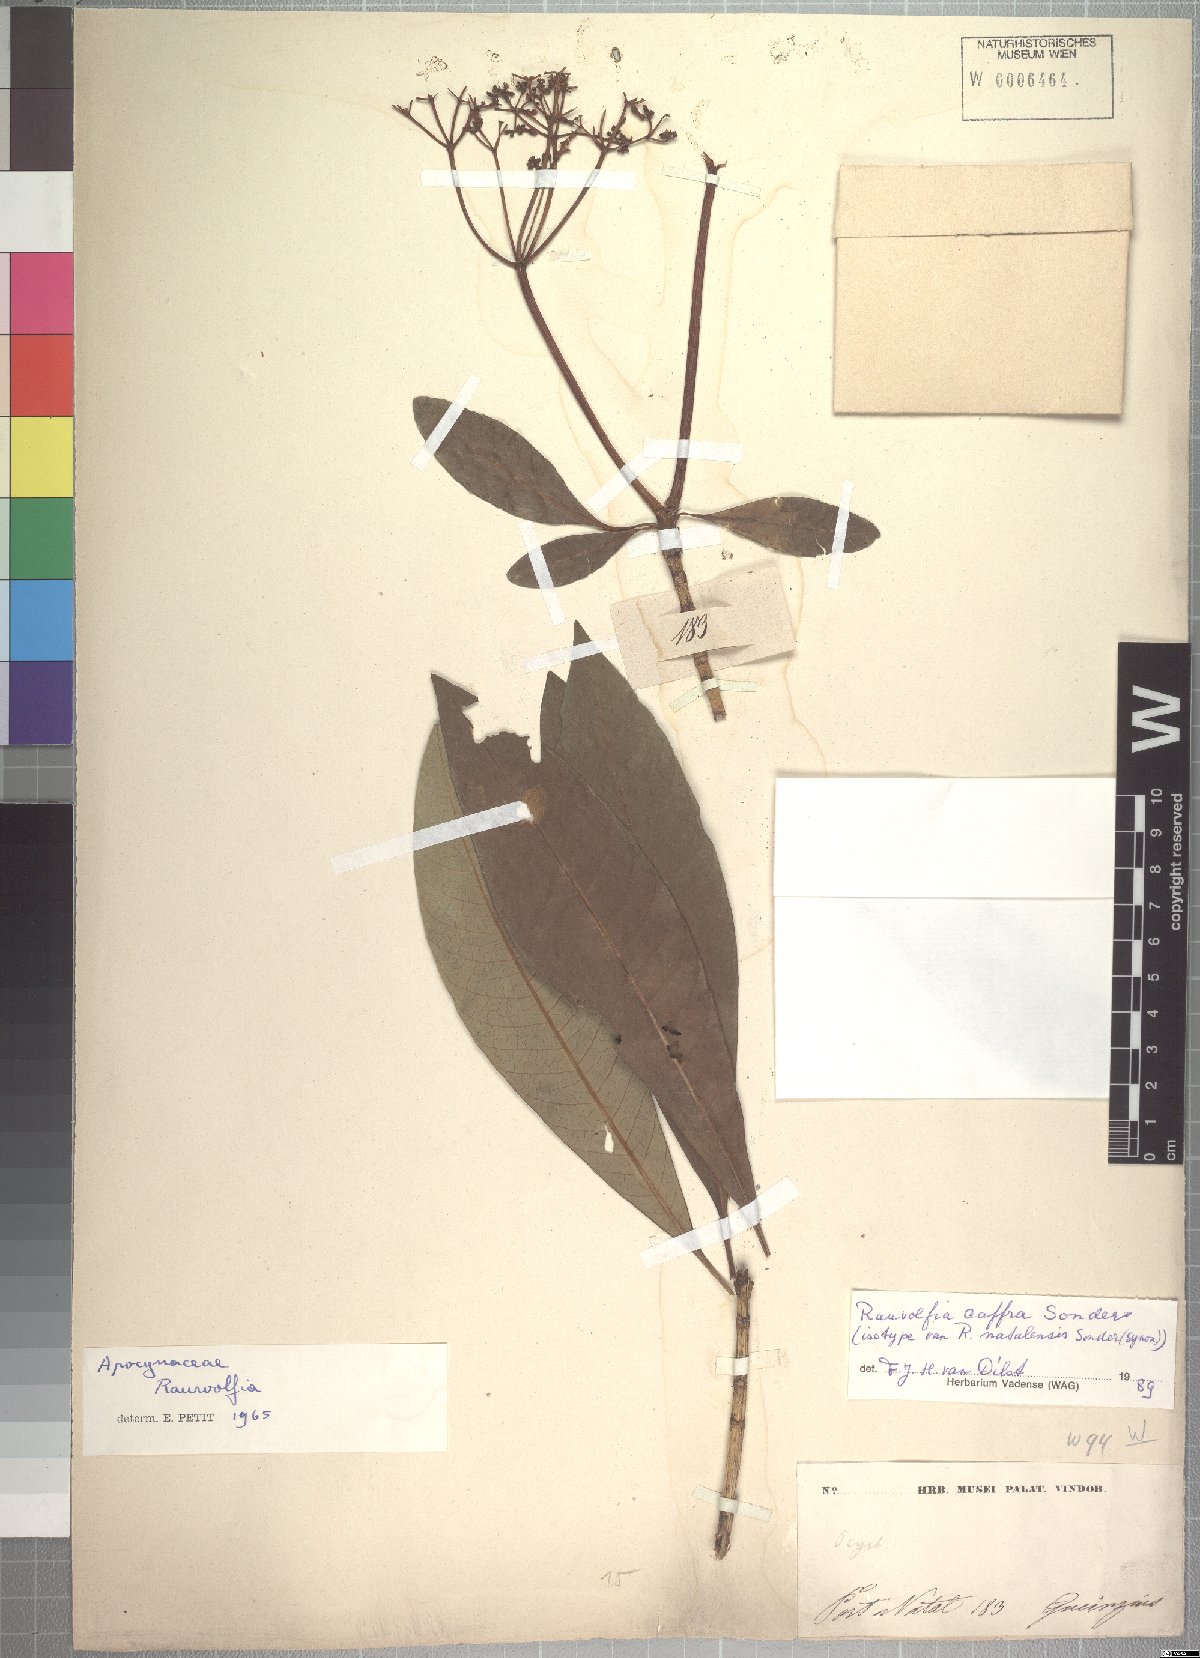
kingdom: Plantae
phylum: Tracheophyta
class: Magnoliopsida
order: Gentianales
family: Apocynaceae
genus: Rauvolfia
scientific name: Rauvolfia caffra
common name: Quininetree
